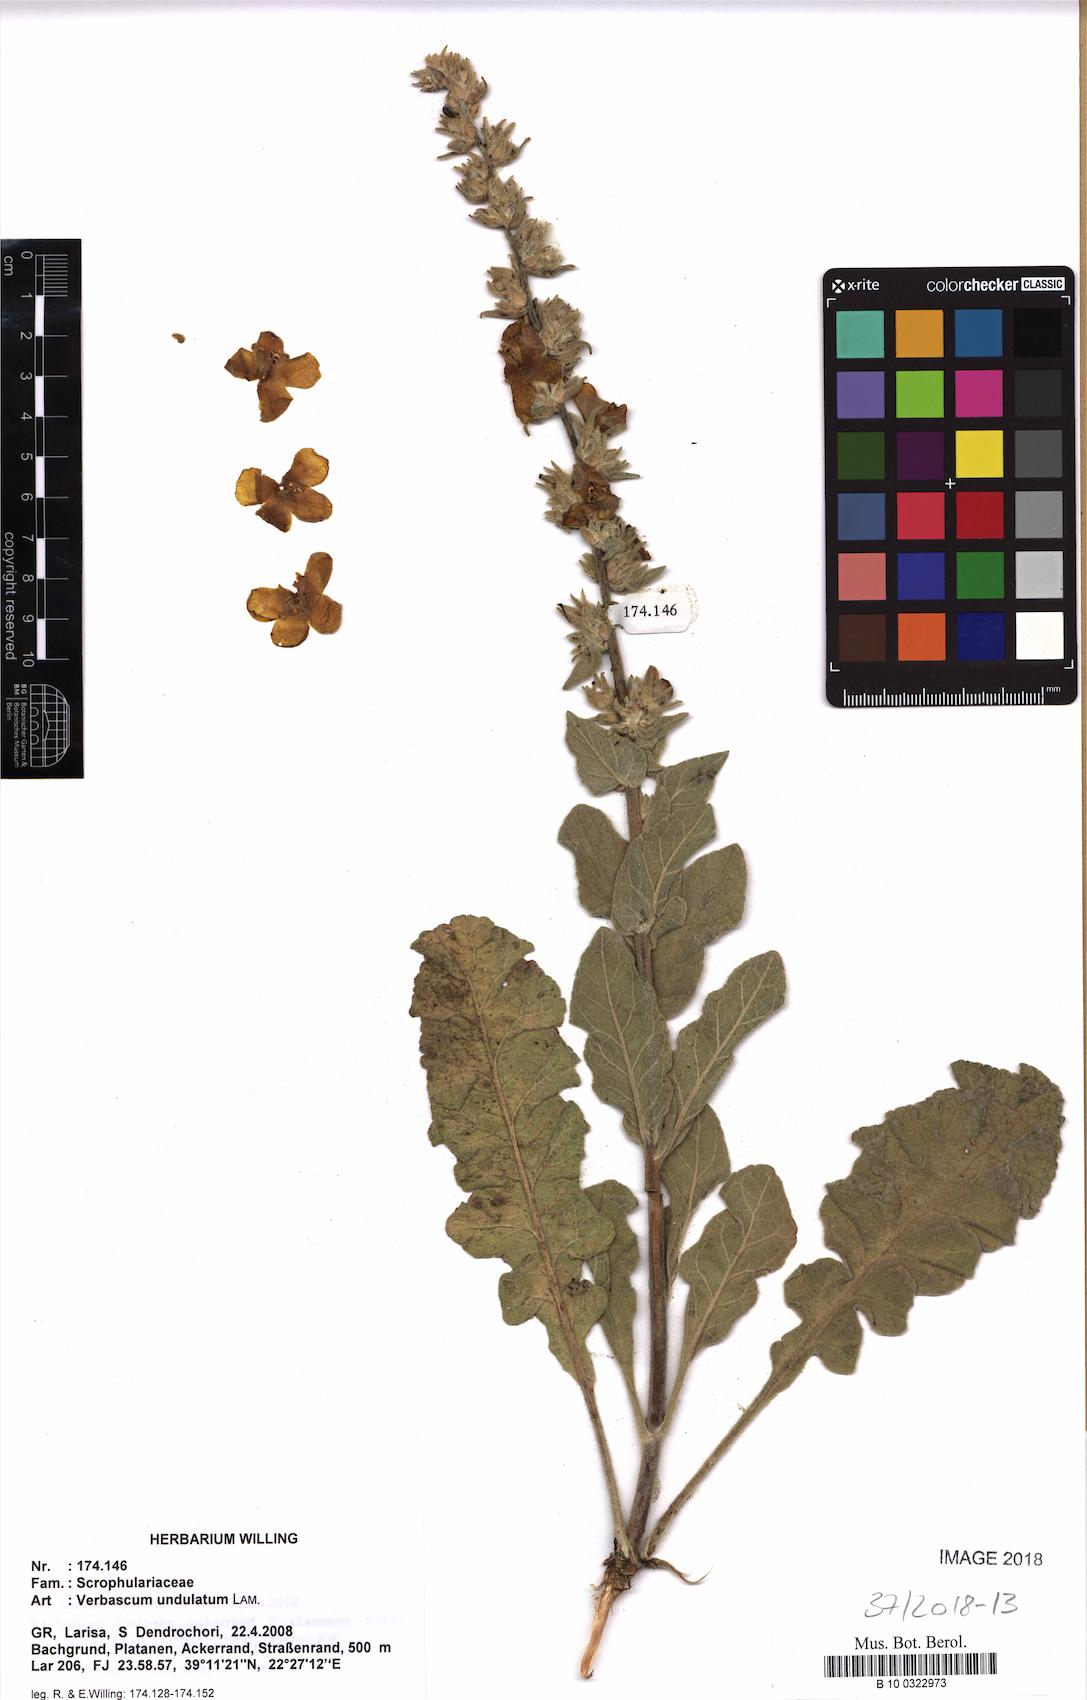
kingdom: Plantae
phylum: Tracheophyta
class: Magnoliopsida
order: Lamiales
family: Scrophulariaceae
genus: Verbascum
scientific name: Verbascum undulatum
